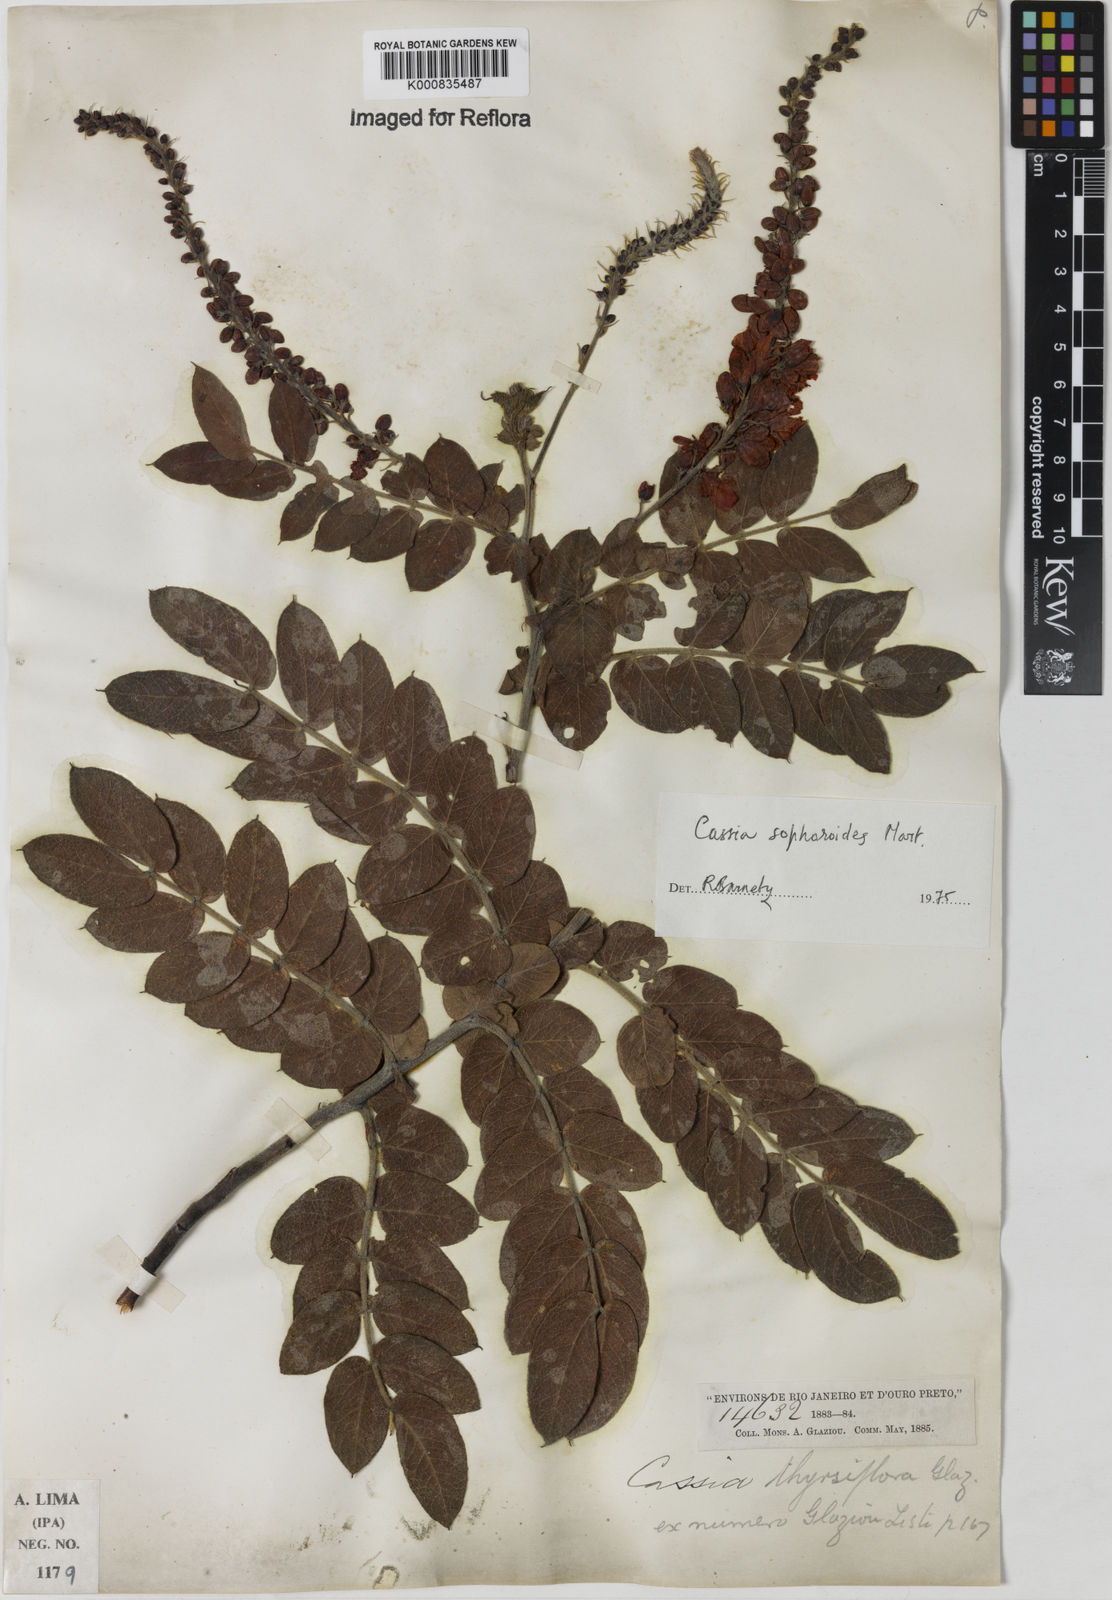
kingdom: Plantae
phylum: Tracheophyta
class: Magnoliopsida
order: Fabales
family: Fabaceae
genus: Chamaecrista
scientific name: Chamaecrista sophoroides
